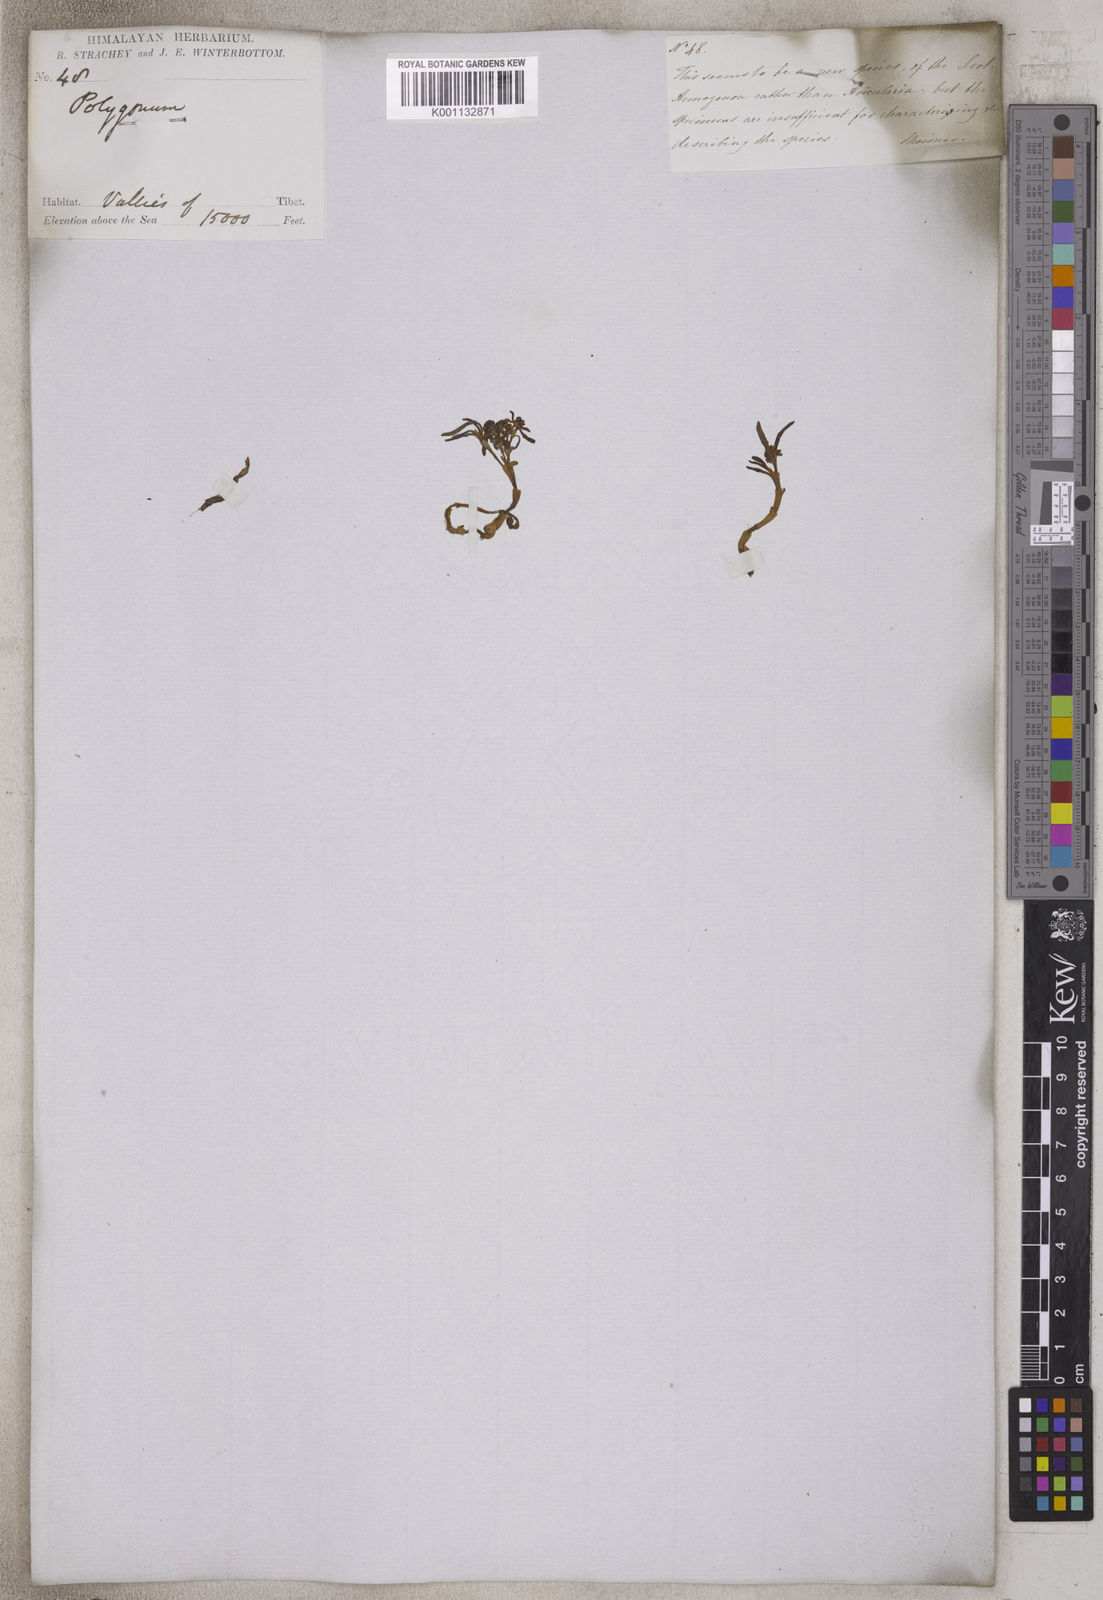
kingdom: Plantae
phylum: Tracheophyta
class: Magnoliopsida
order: Caryophyllales
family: Polygonaceae
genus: Polygonum
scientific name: Polygonum
